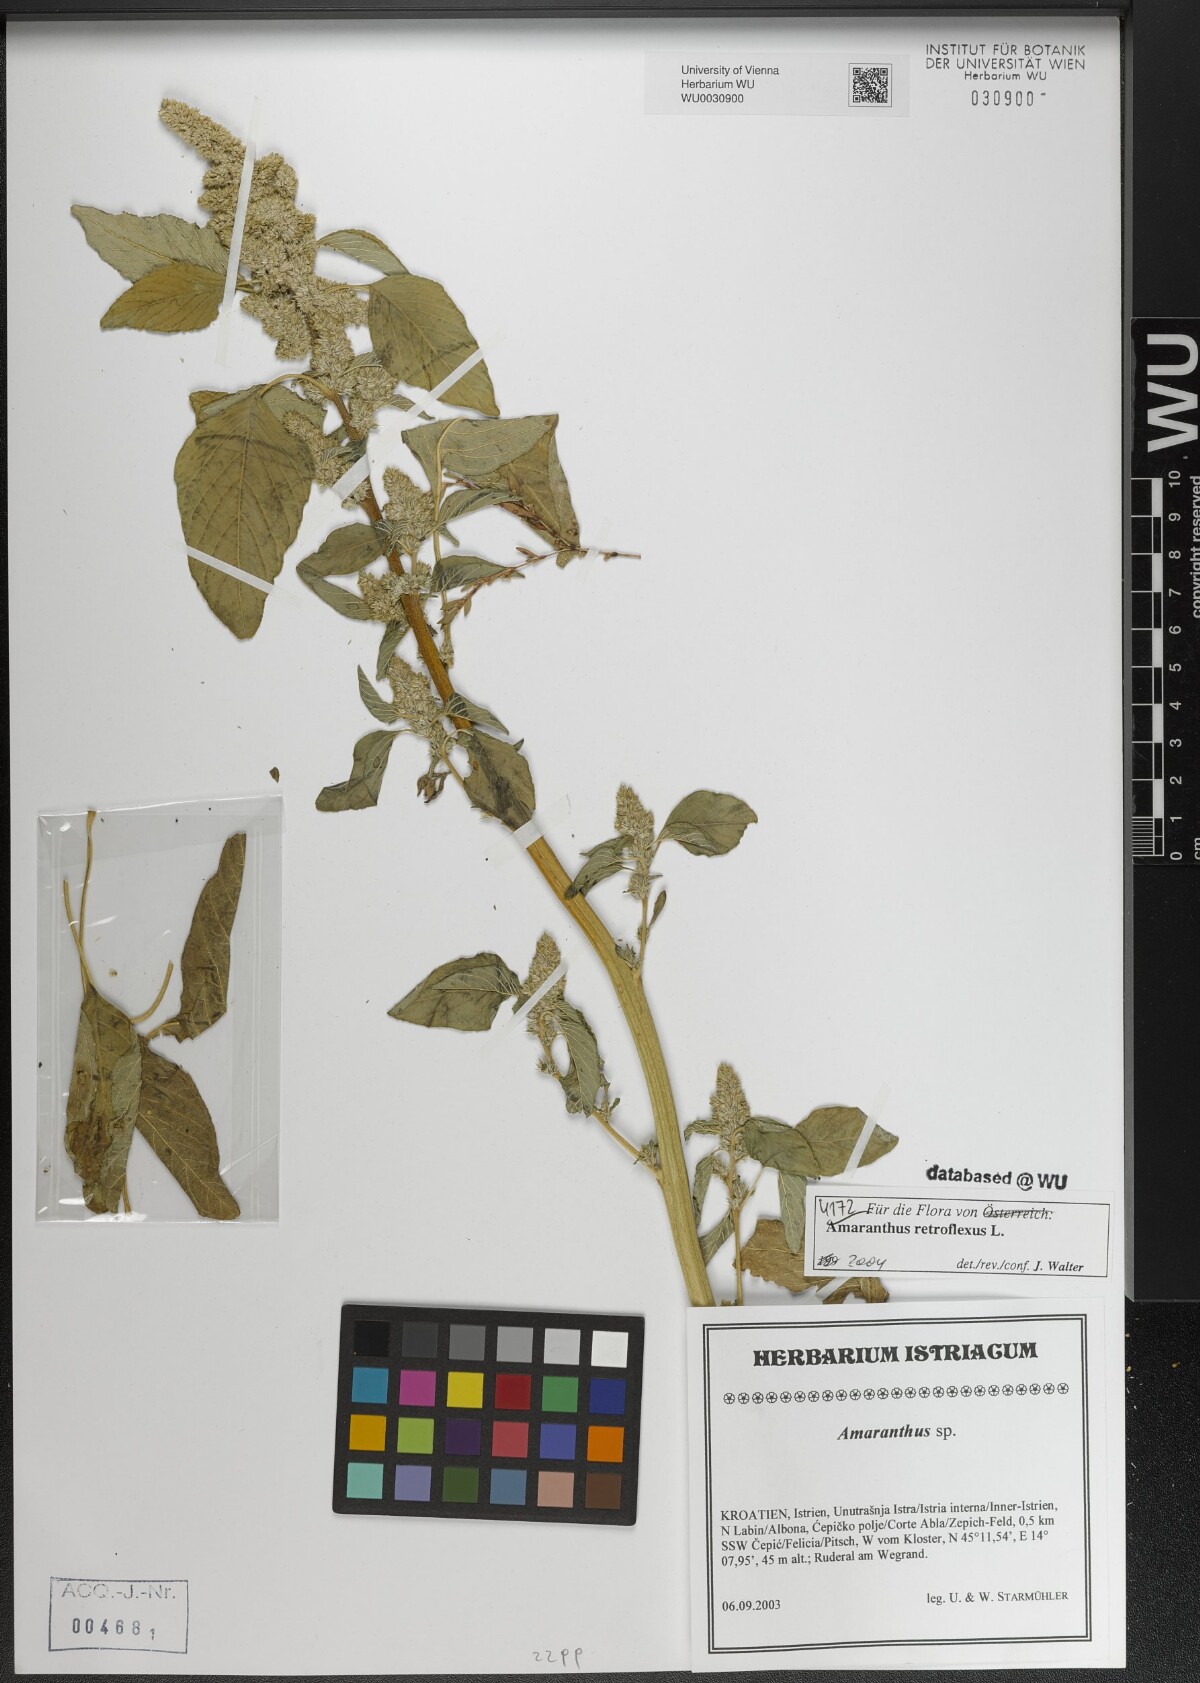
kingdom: Plantae
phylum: Tracheophyta
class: Magnoliopsida
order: Caryophyllales
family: Amaranthaceae
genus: Amaranthus
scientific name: Amaranthus retroflexus
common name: Redroot amaranth
